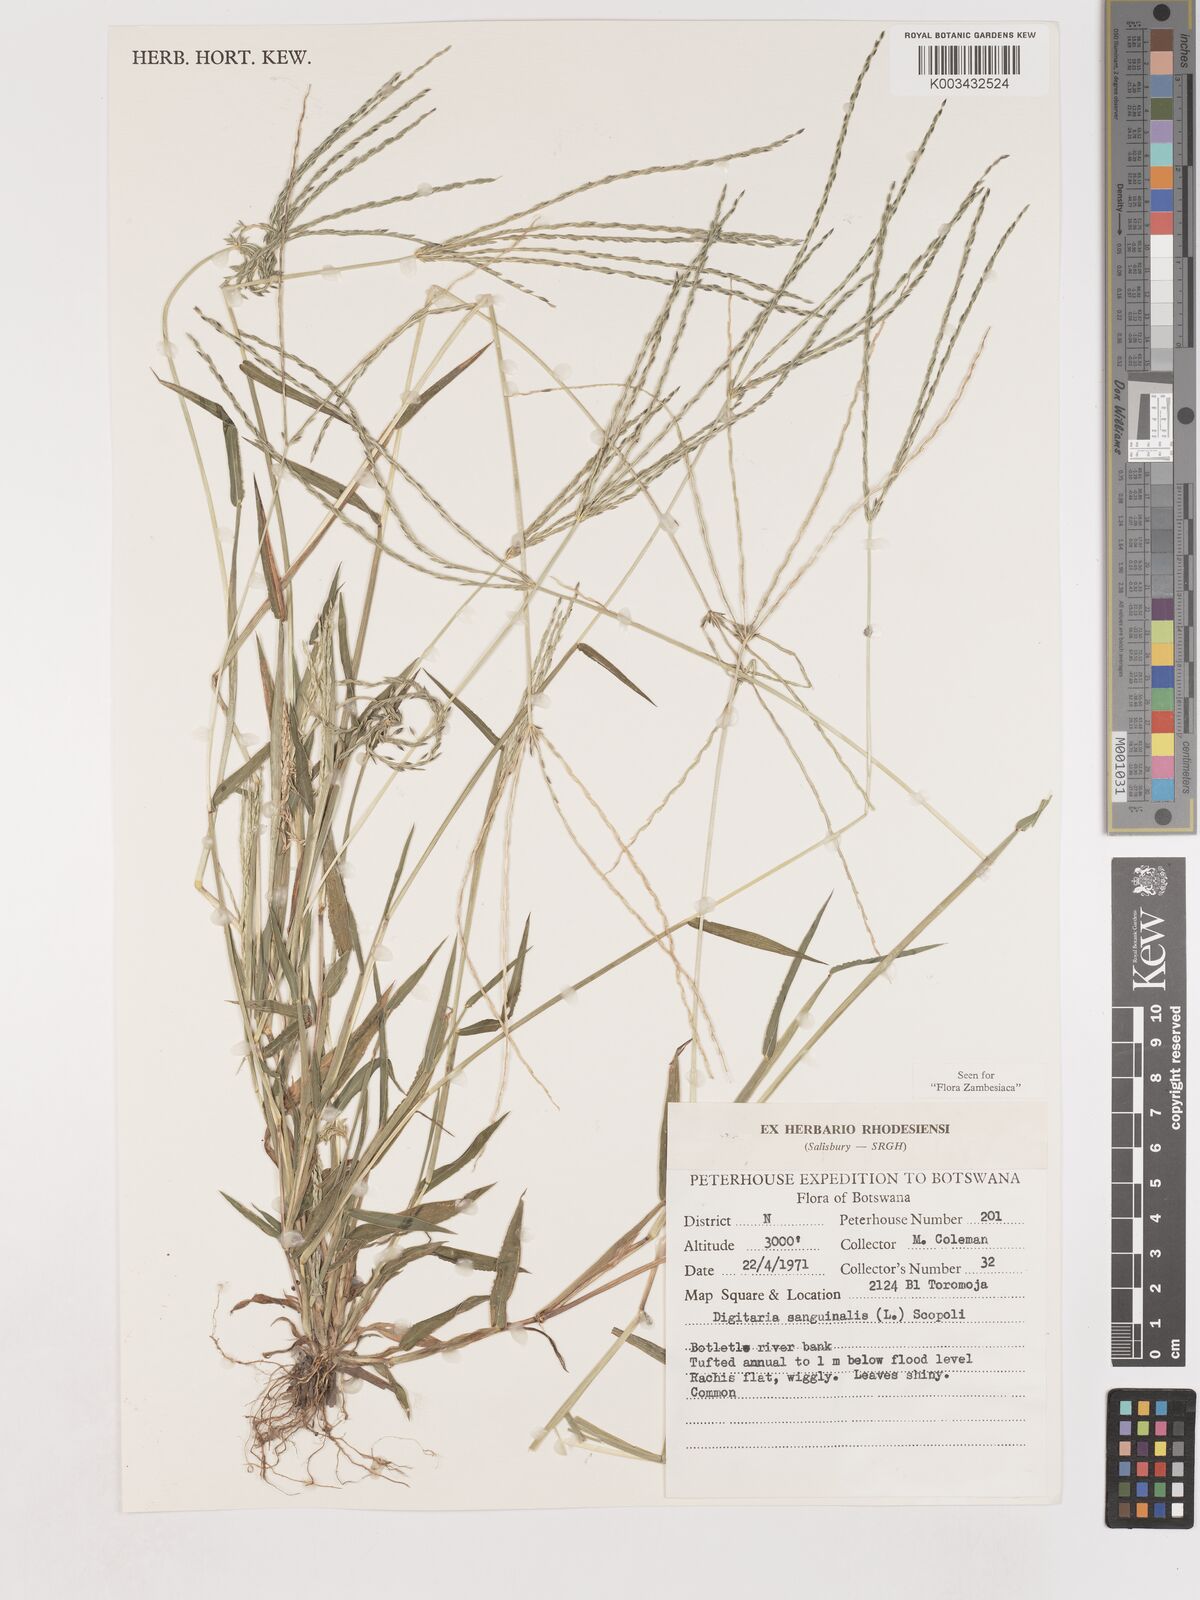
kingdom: Plantae
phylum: Tracheophyta
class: Liliopsida
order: Poales
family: Poaceae
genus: Digitaria
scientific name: Digitaria sanguinalis
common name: Hairy crabgrass
